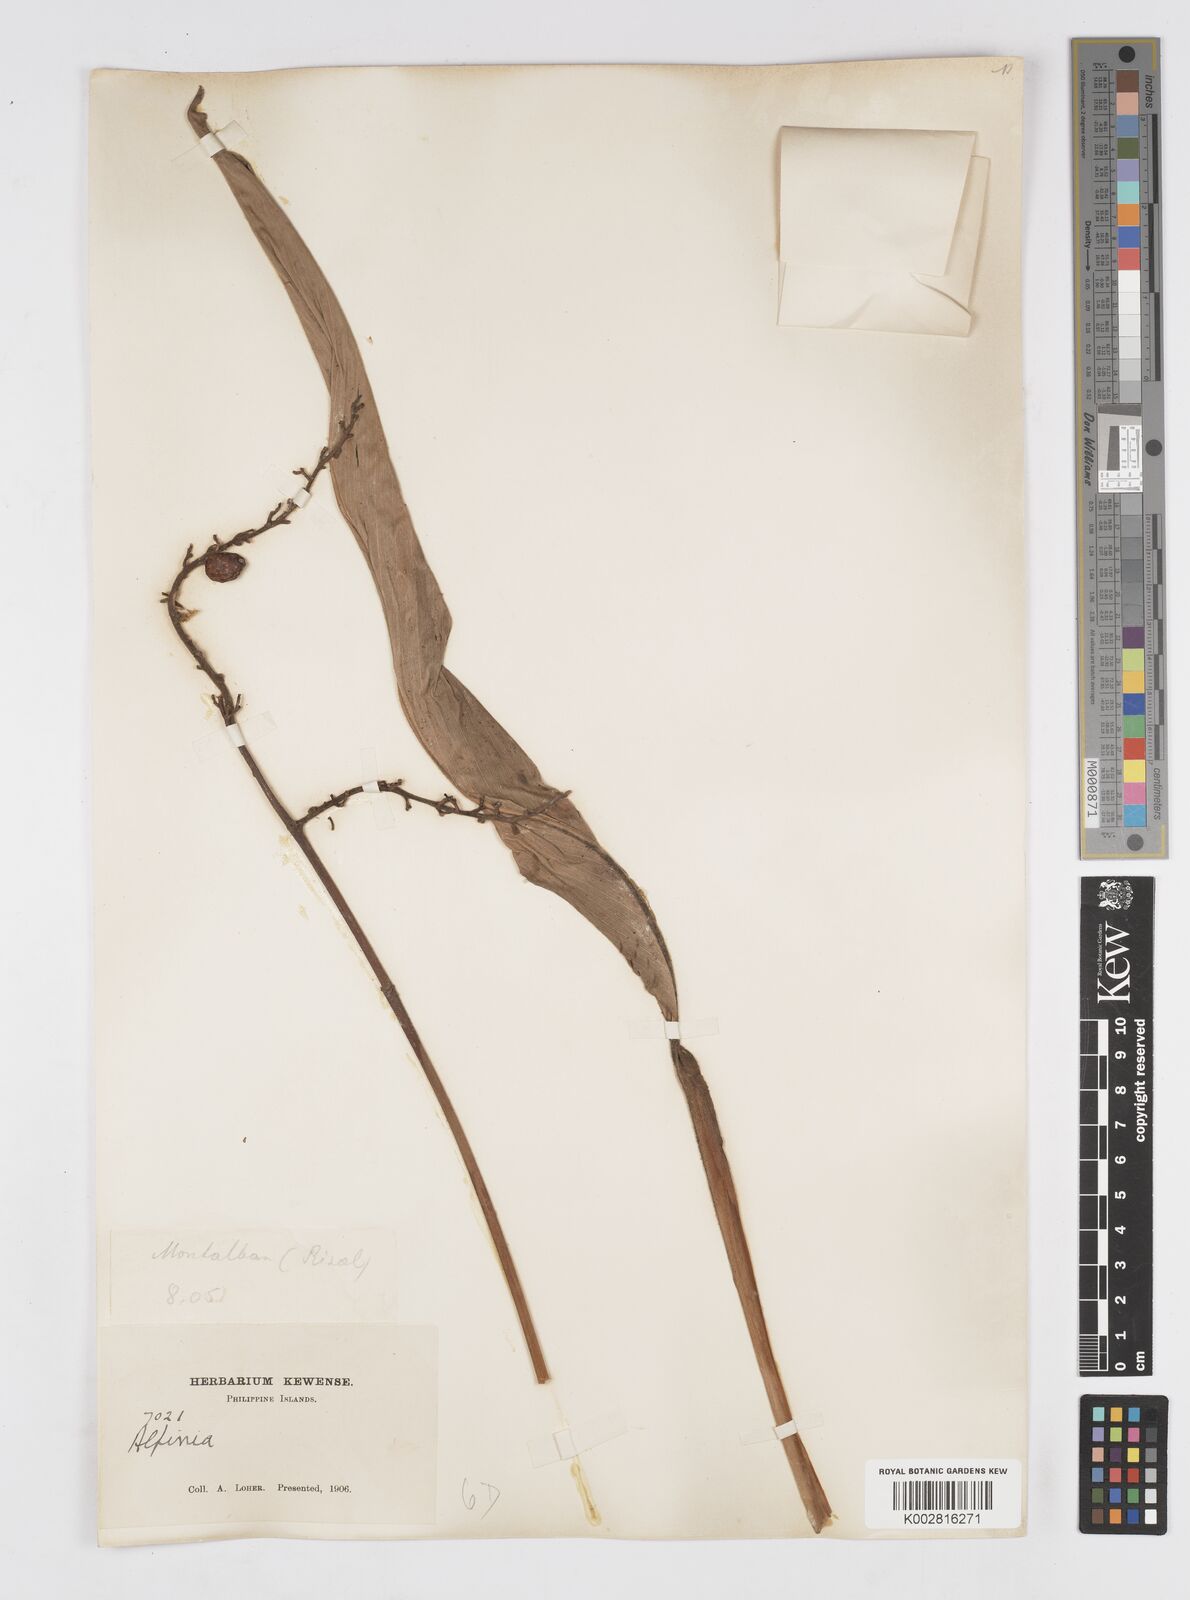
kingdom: Plantae
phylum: Tracheophyta
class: Liliopsida
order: Zingiberales
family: Zingiberaceae
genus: Alpinia
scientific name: Alpinia
